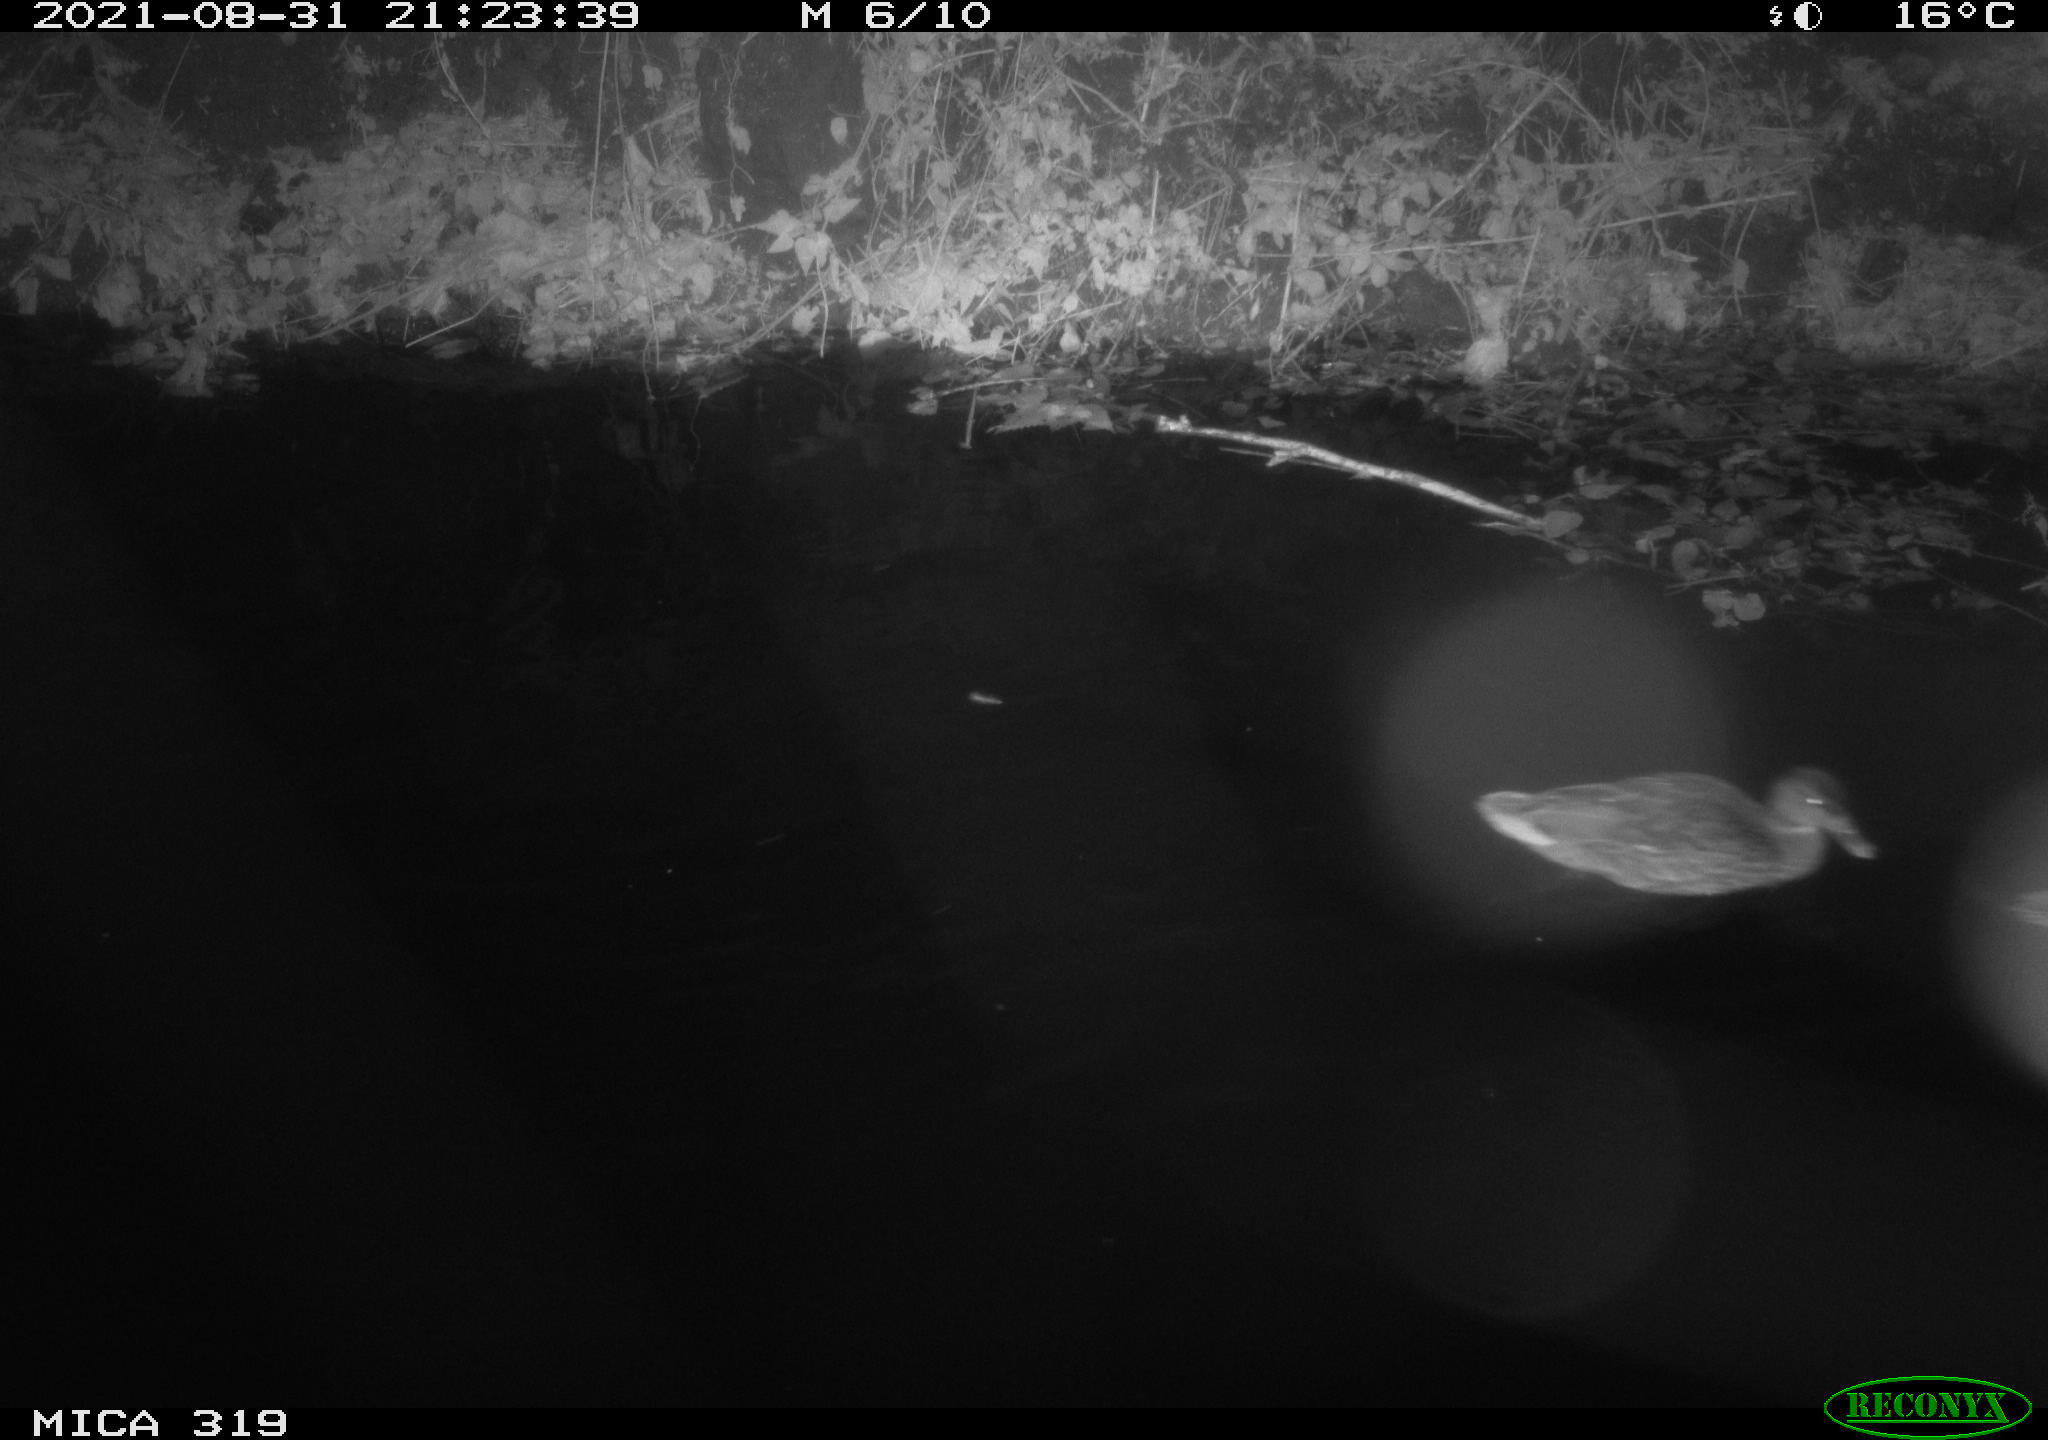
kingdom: Animalia
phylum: Chordata
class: Aves
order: Anseriformes
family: Anatidae
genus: Anas
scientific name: Anas platyrhynchos
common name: Mallard
